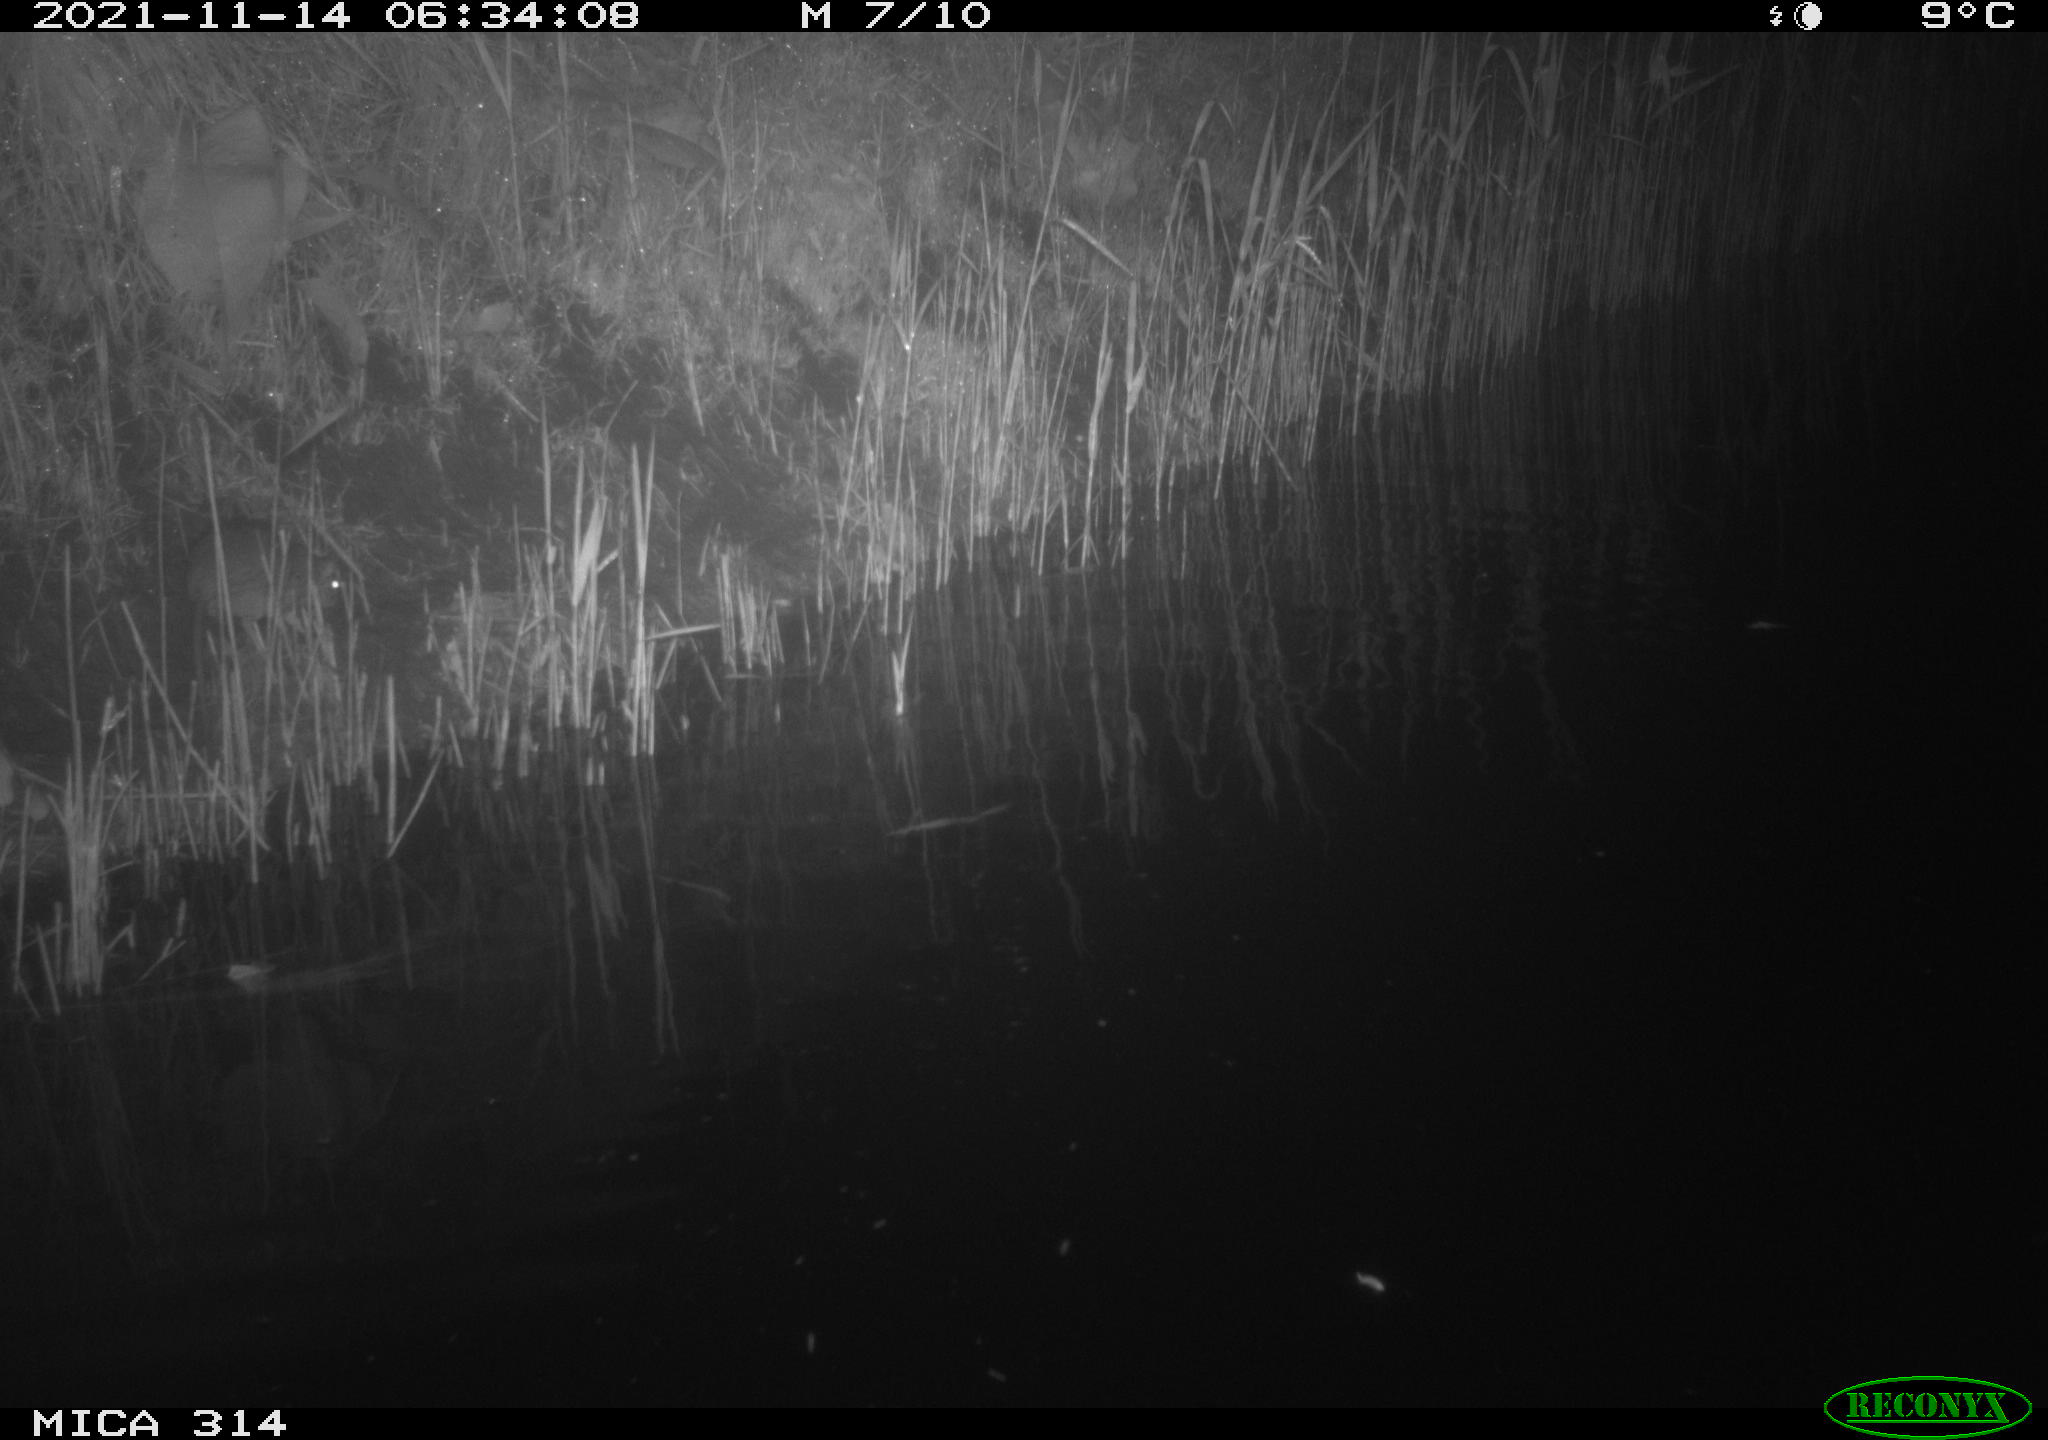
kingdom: Animalia
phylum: Chordata
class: Mammalia
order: Rodentia
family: Muridae
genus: Rattus
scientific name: Rattus norvegicus
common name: Brown rat
